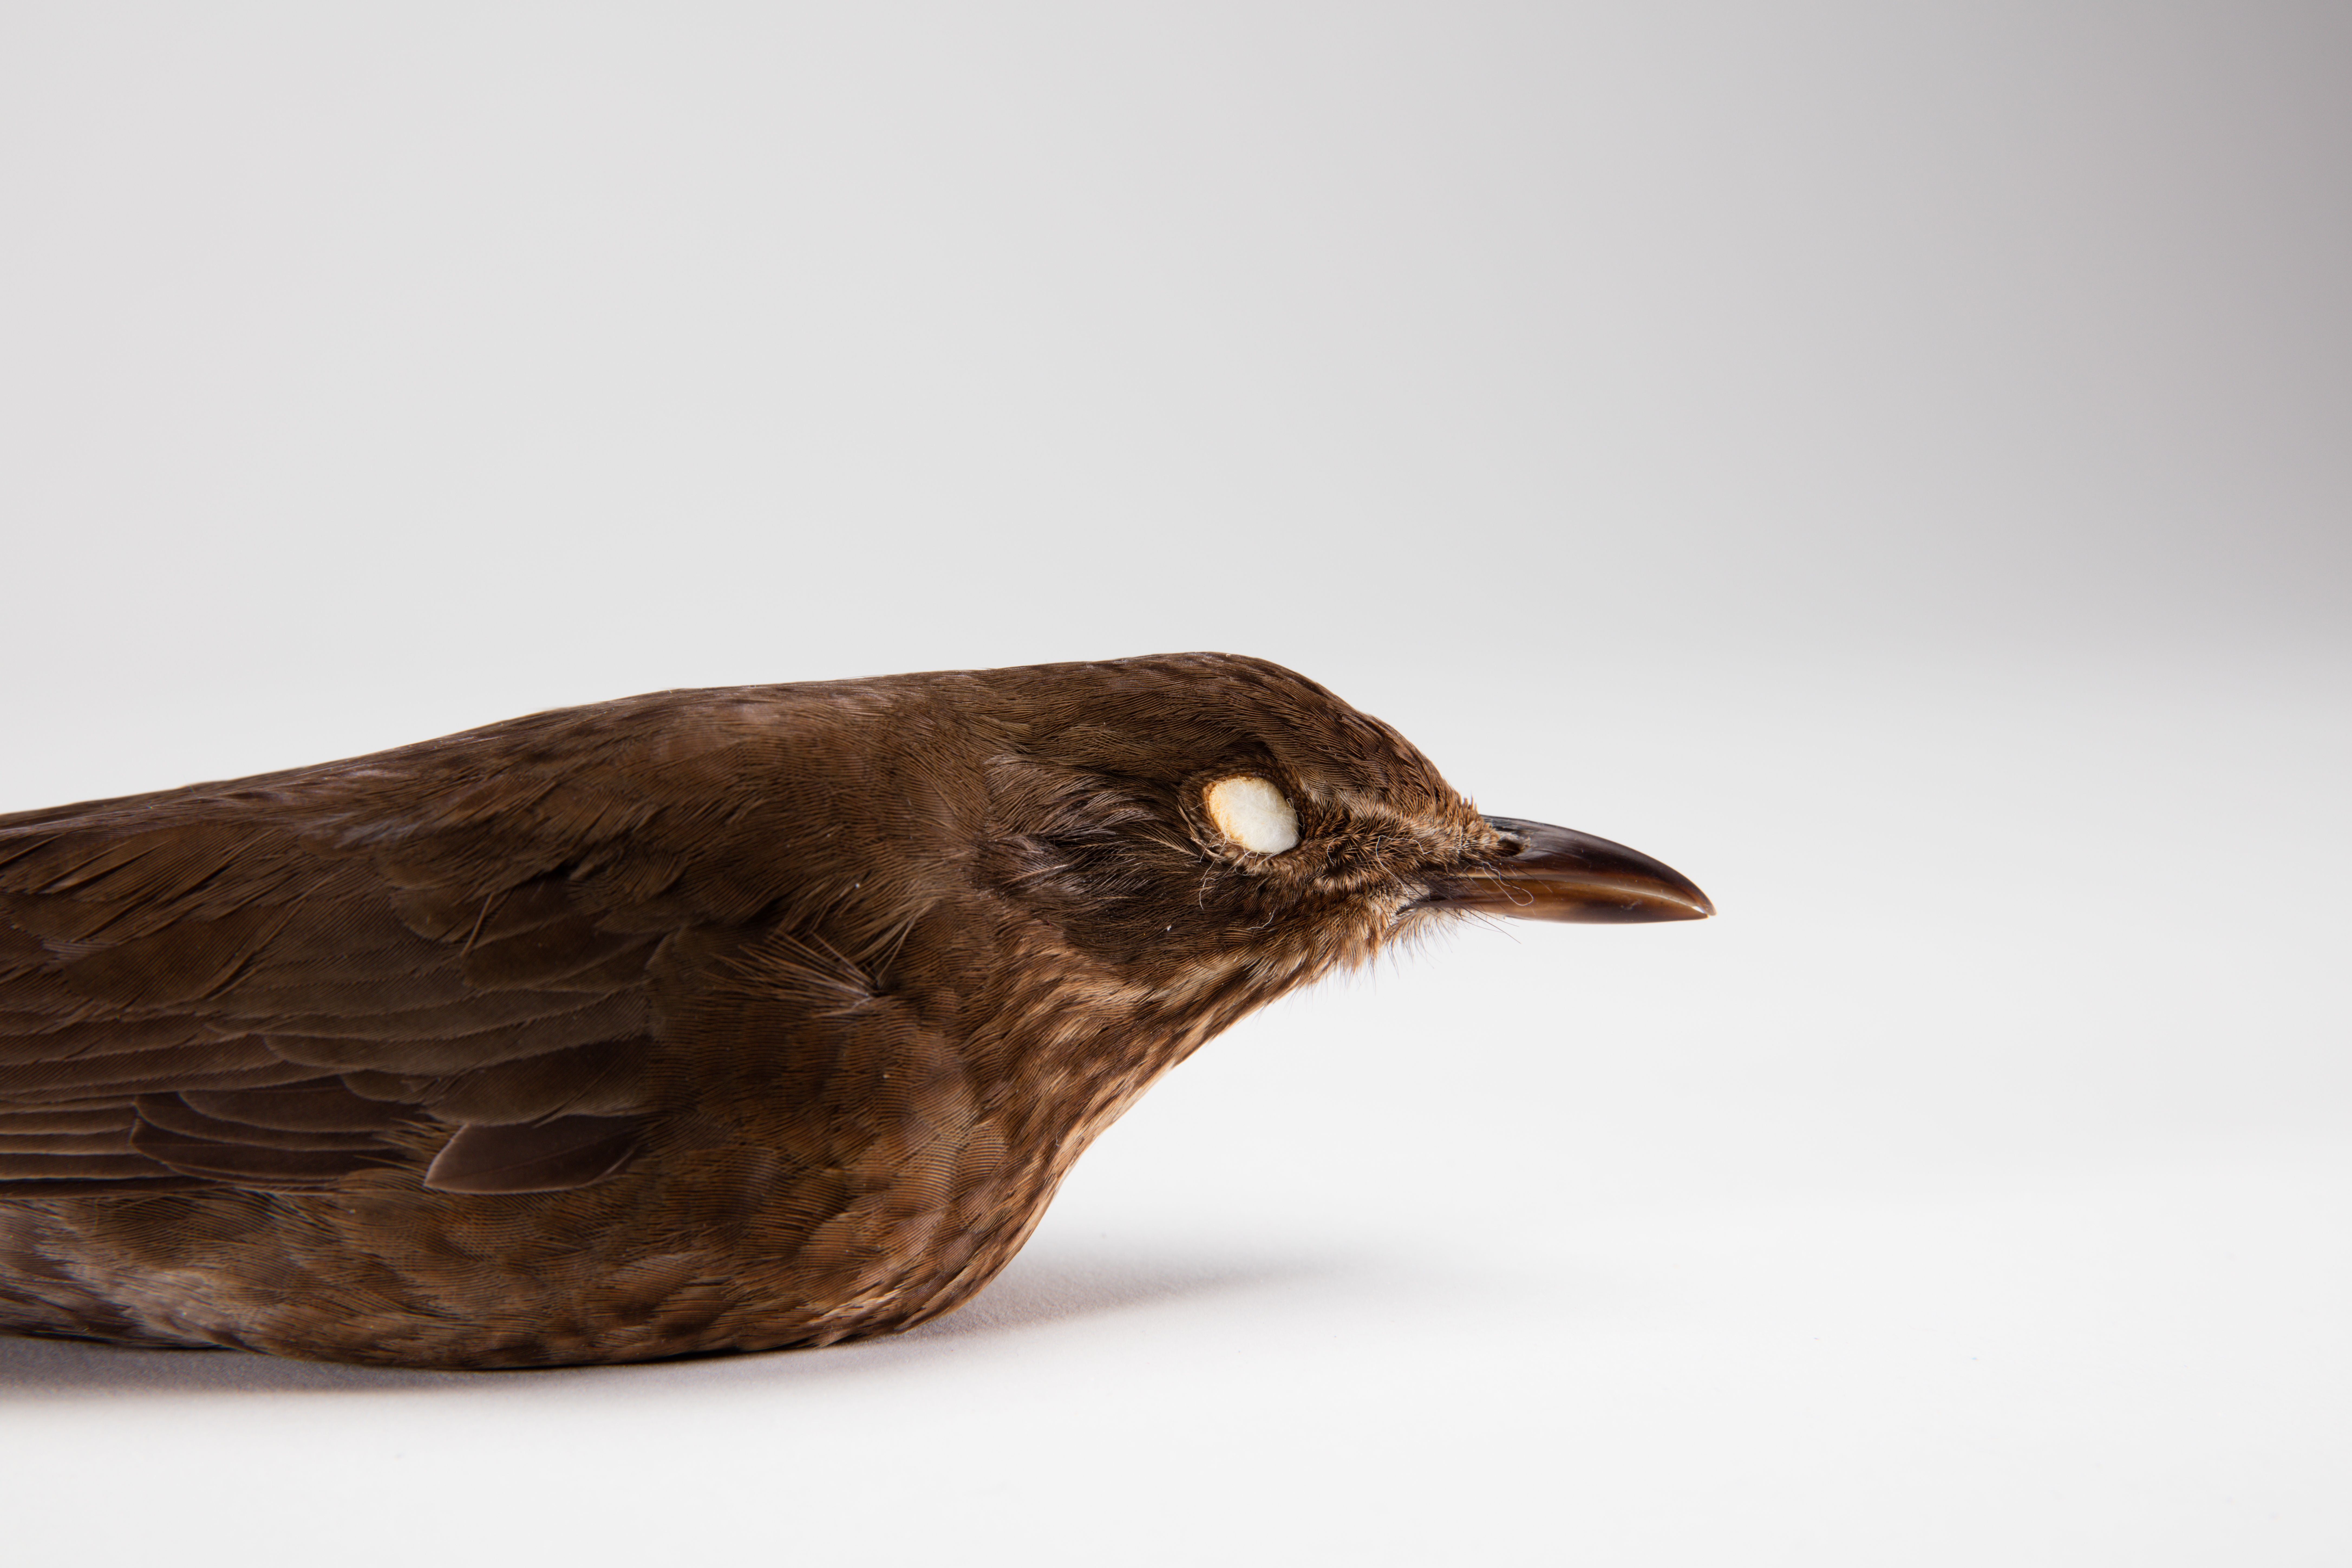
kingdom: Animalia
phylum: Chordata
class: Aves
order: Passeriformes
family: Turdidae
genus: Turdus
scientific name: Turdus merula
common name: Common blackbird
